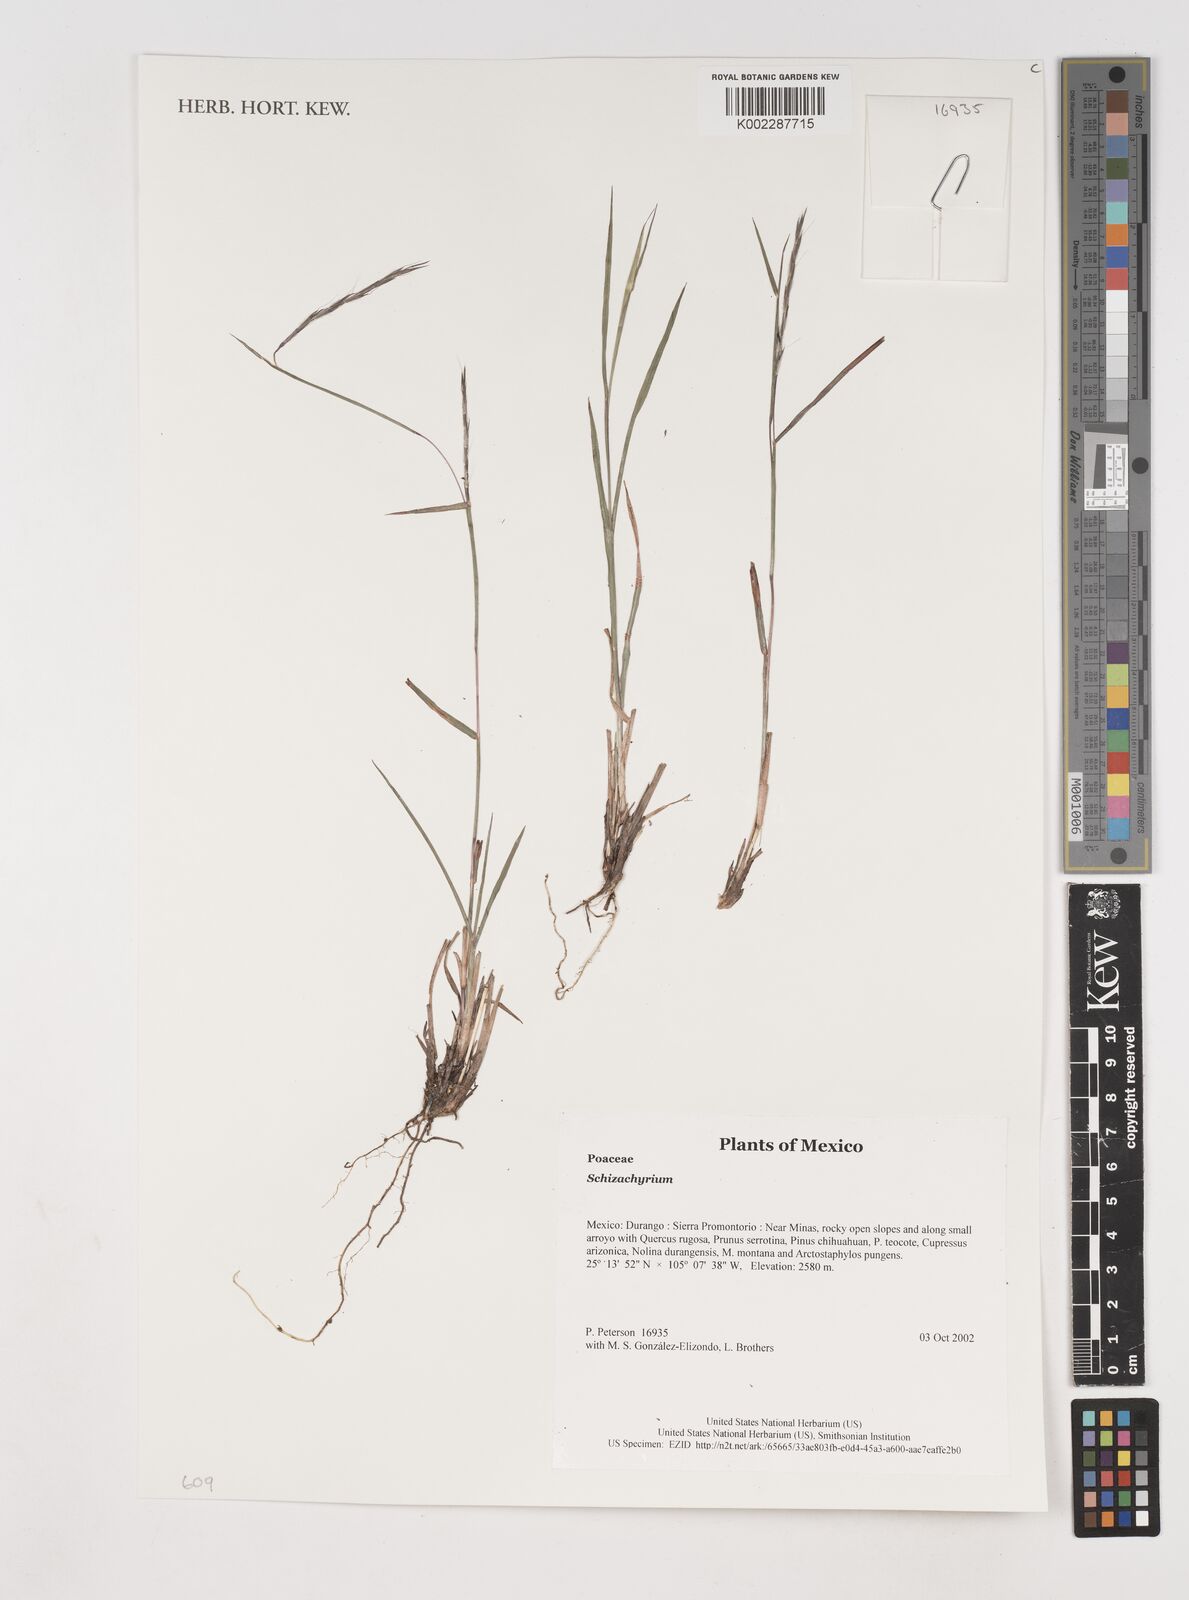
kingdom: Plantae
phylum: Tracheophyta
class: Liliopsida
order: Poales
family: Poaceae
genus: Schizachyrium
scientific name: Schizachyrium
